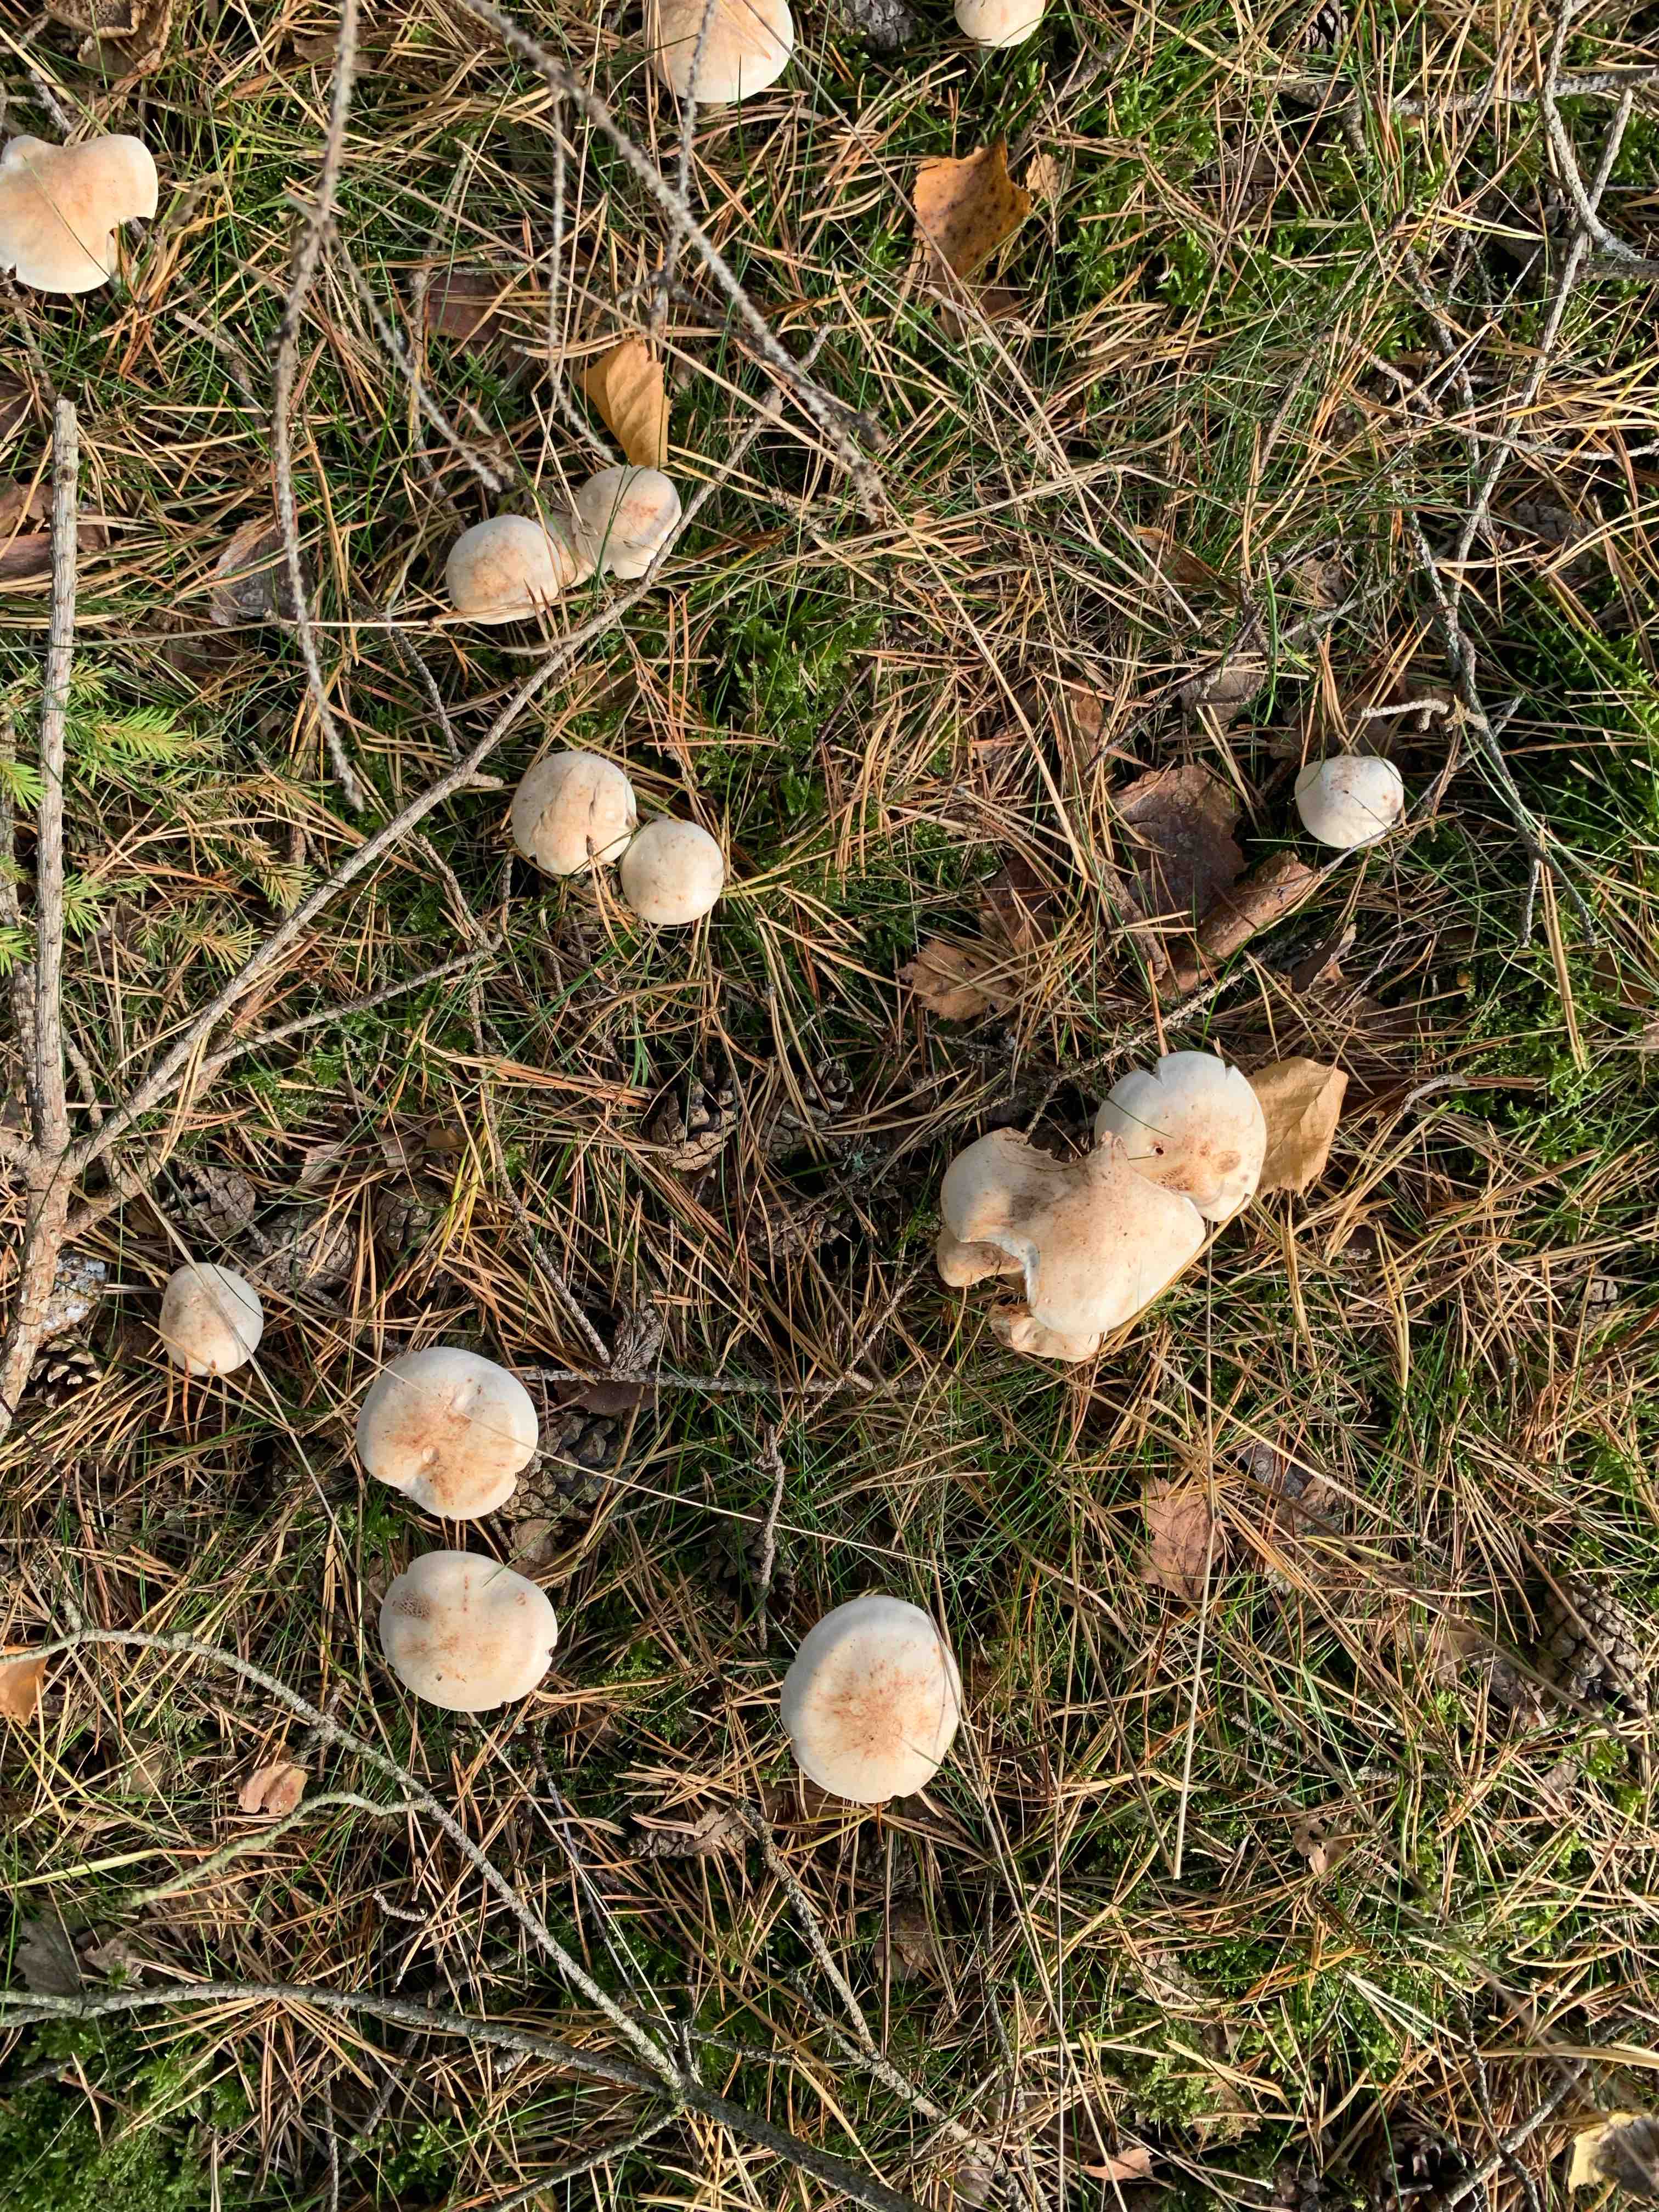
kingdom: Fungi
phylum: Basidiomycota
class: Agaricomycetes
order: Agaricales
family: Omphalotaceae
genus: Rhodocollybia
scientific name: Rhodocollybia maculata
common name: plettet fladhat
